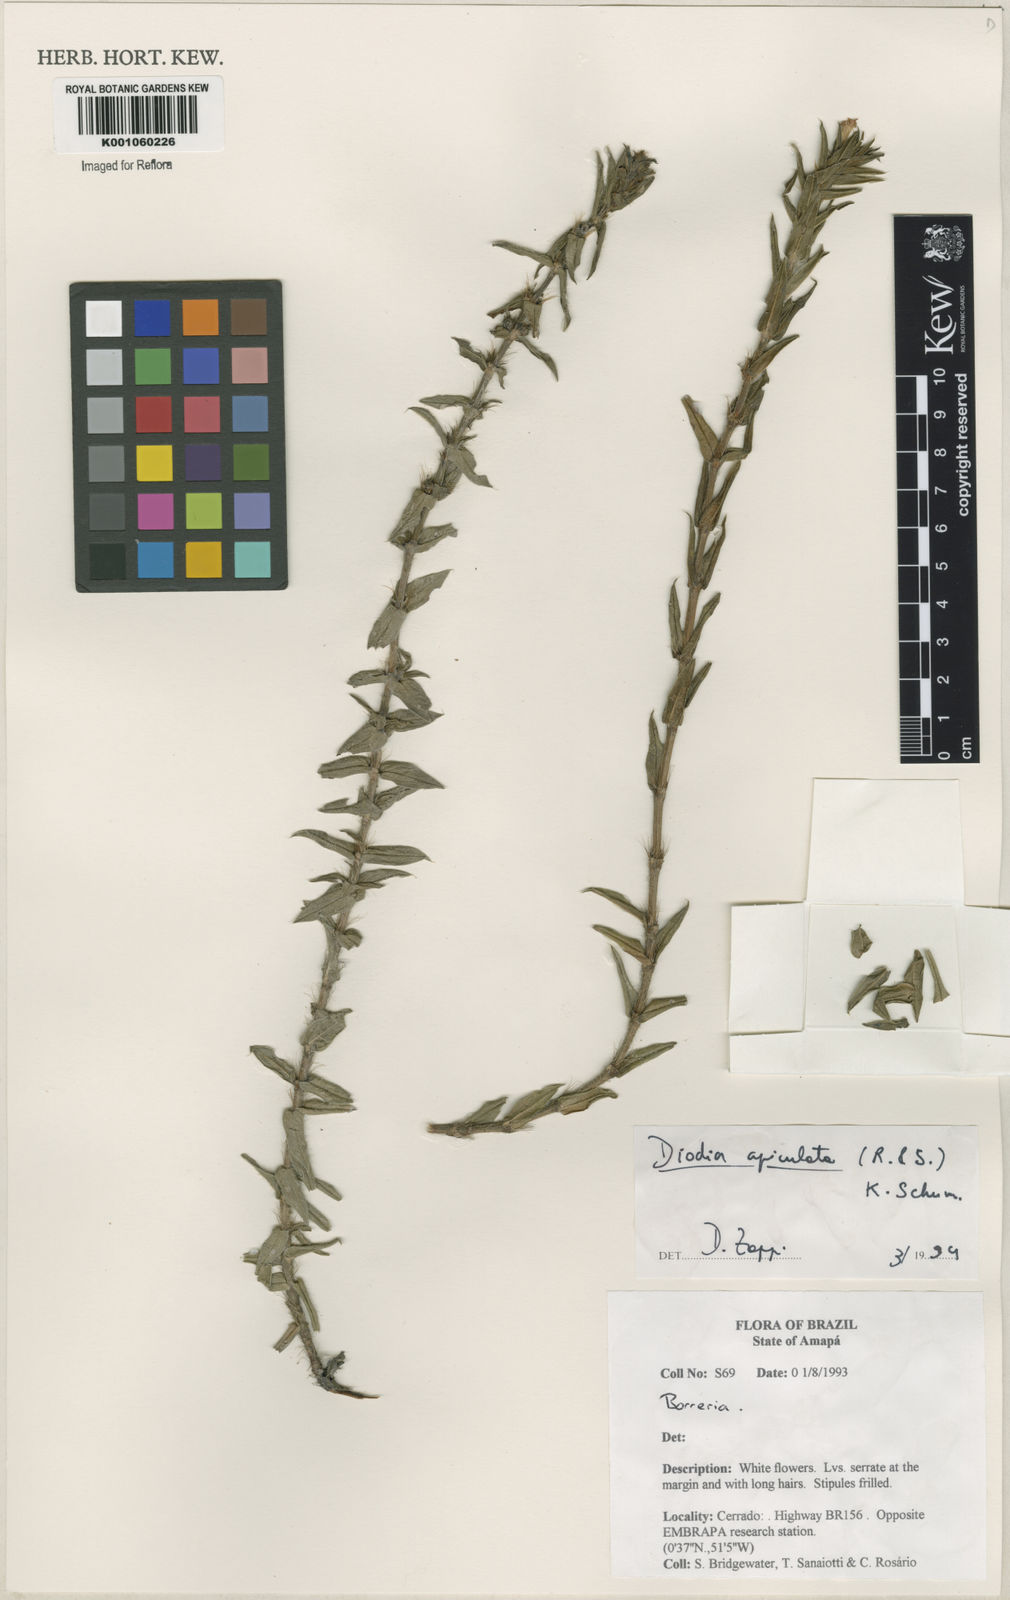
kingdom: Plantae
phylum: Tracheophyta
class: Magnoliopsida
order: Gentianales
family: Rubiaceae
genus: Hexasepalum
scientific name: Hexasepalum apiculatum
